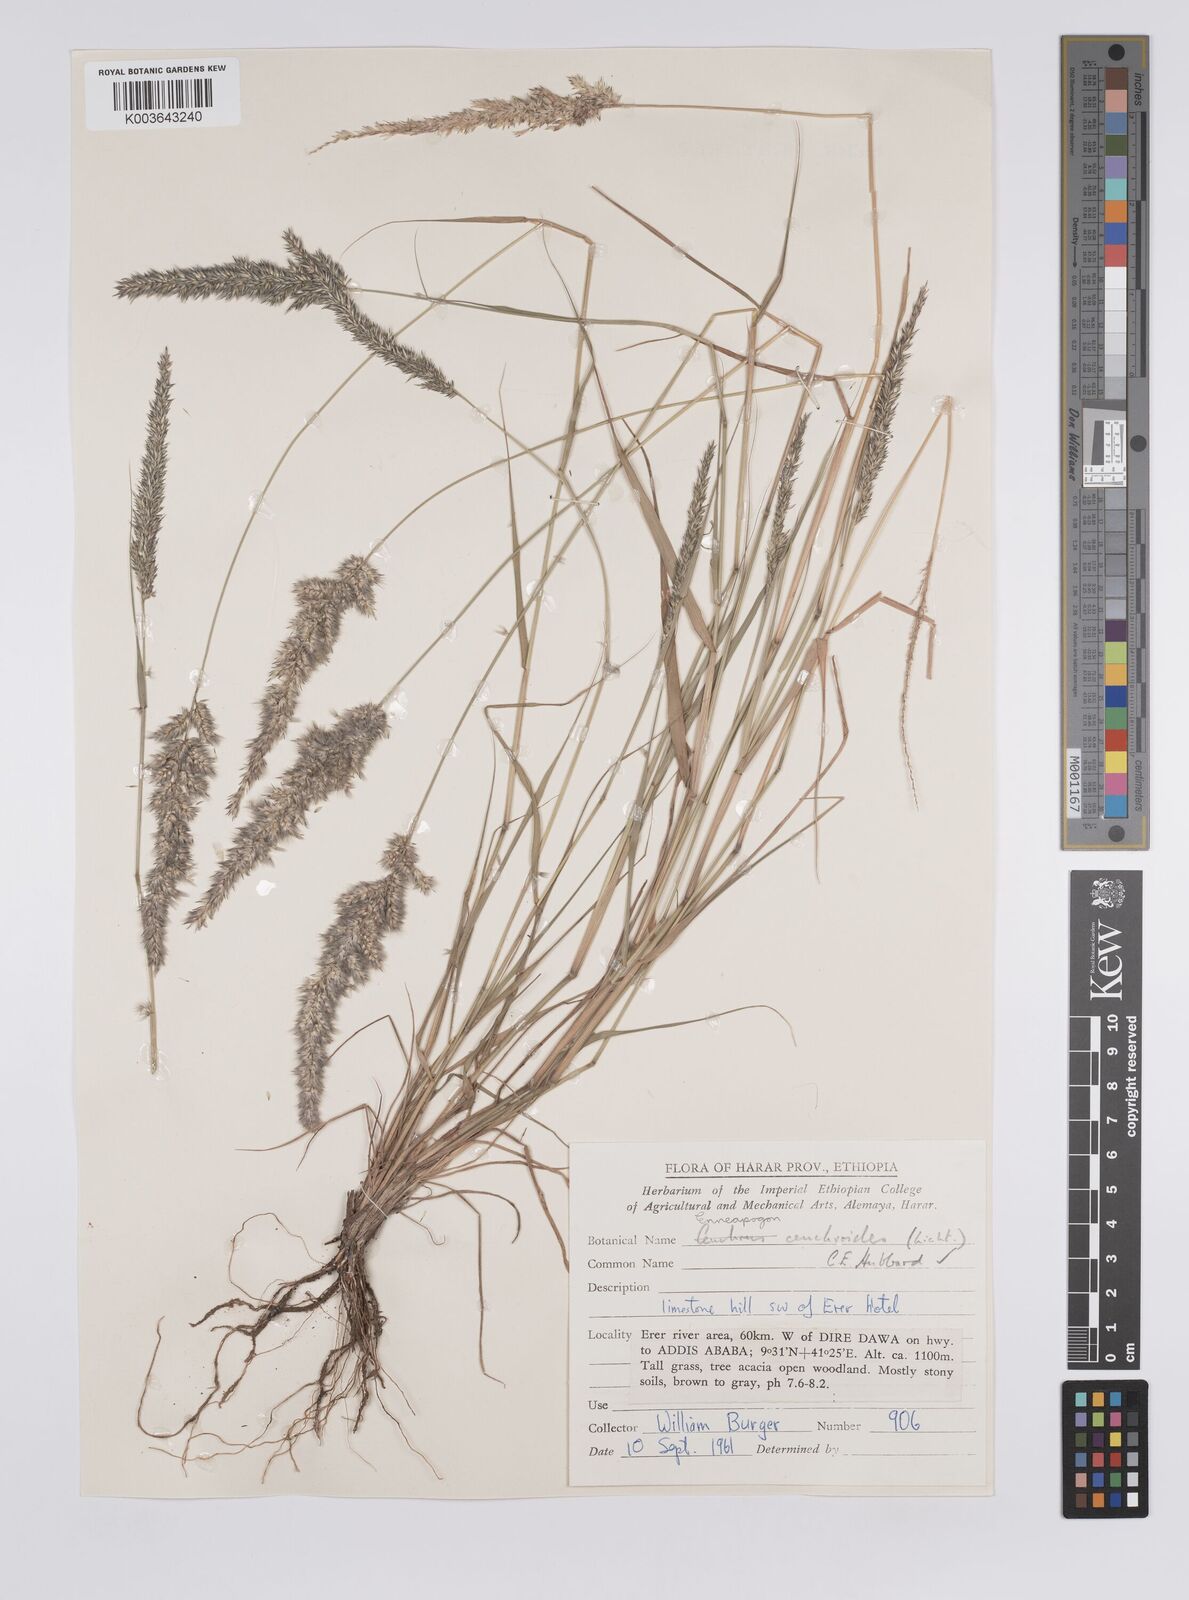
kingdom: Plantae
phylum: Tracheophyta
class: Liliopsida
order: Poales
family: Poaceae
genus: Enneapogon
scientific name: Enneapogon cenchroides
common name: Soft feather pappusgrass
